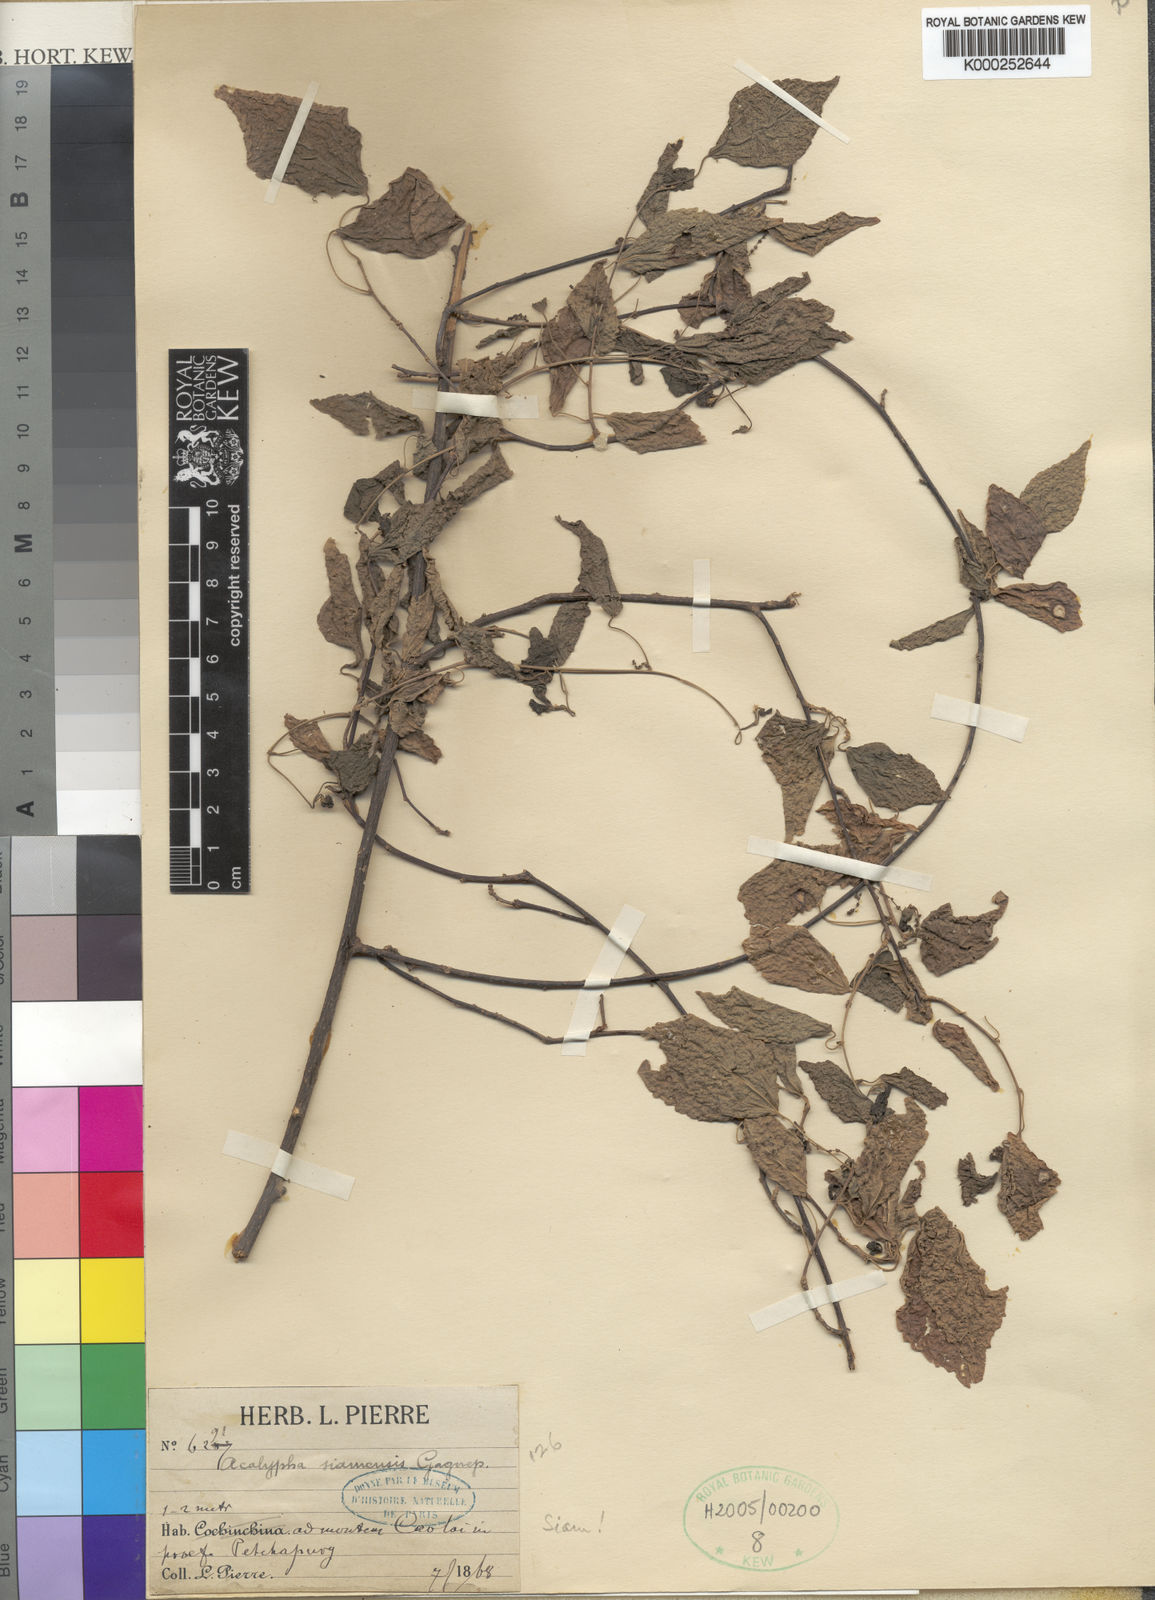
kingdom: Plantae
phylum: Tracheophyta
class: Magnoliopsida
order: Malpighiales
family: Euphorbiaceae
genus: Acalypha
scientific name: Acalypha kerrii
